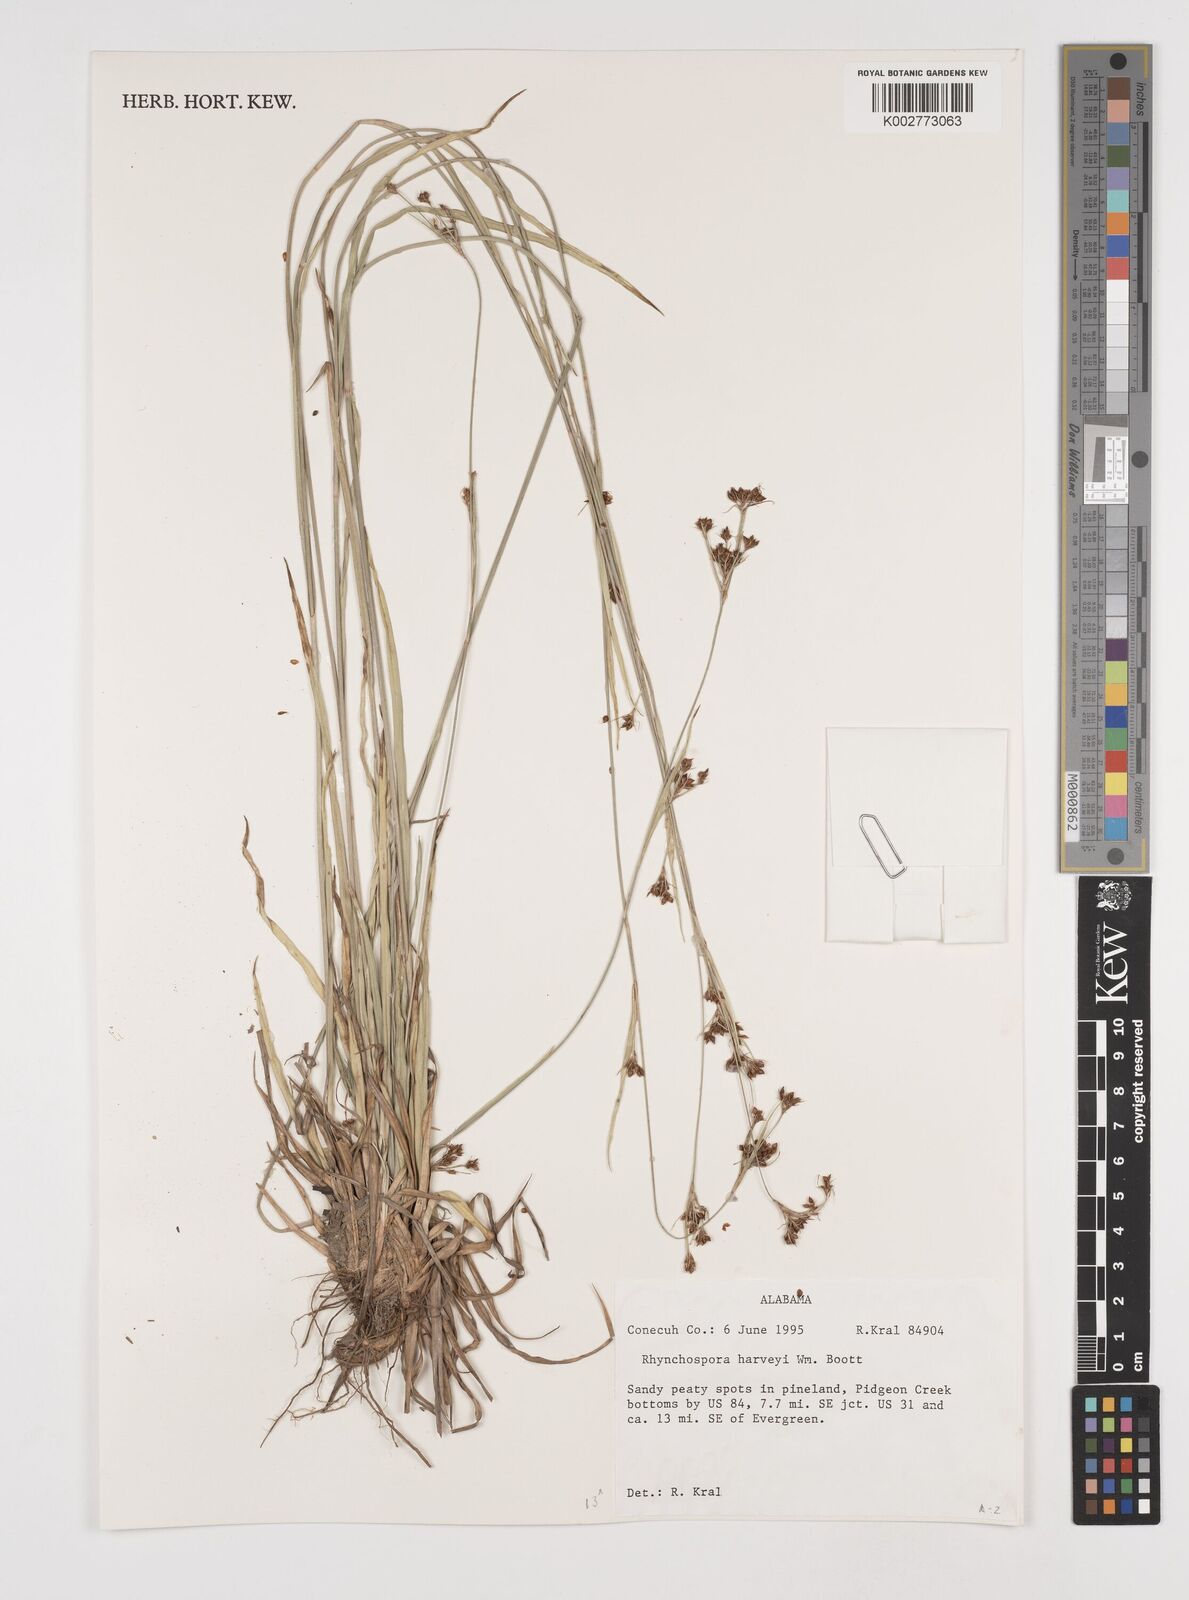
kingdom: Plantae
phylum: Tracheophyta
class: Liliopsida
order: Poales
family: Cyperaceae
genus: Rhynchospora
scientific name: Rhynchospora harveyi
